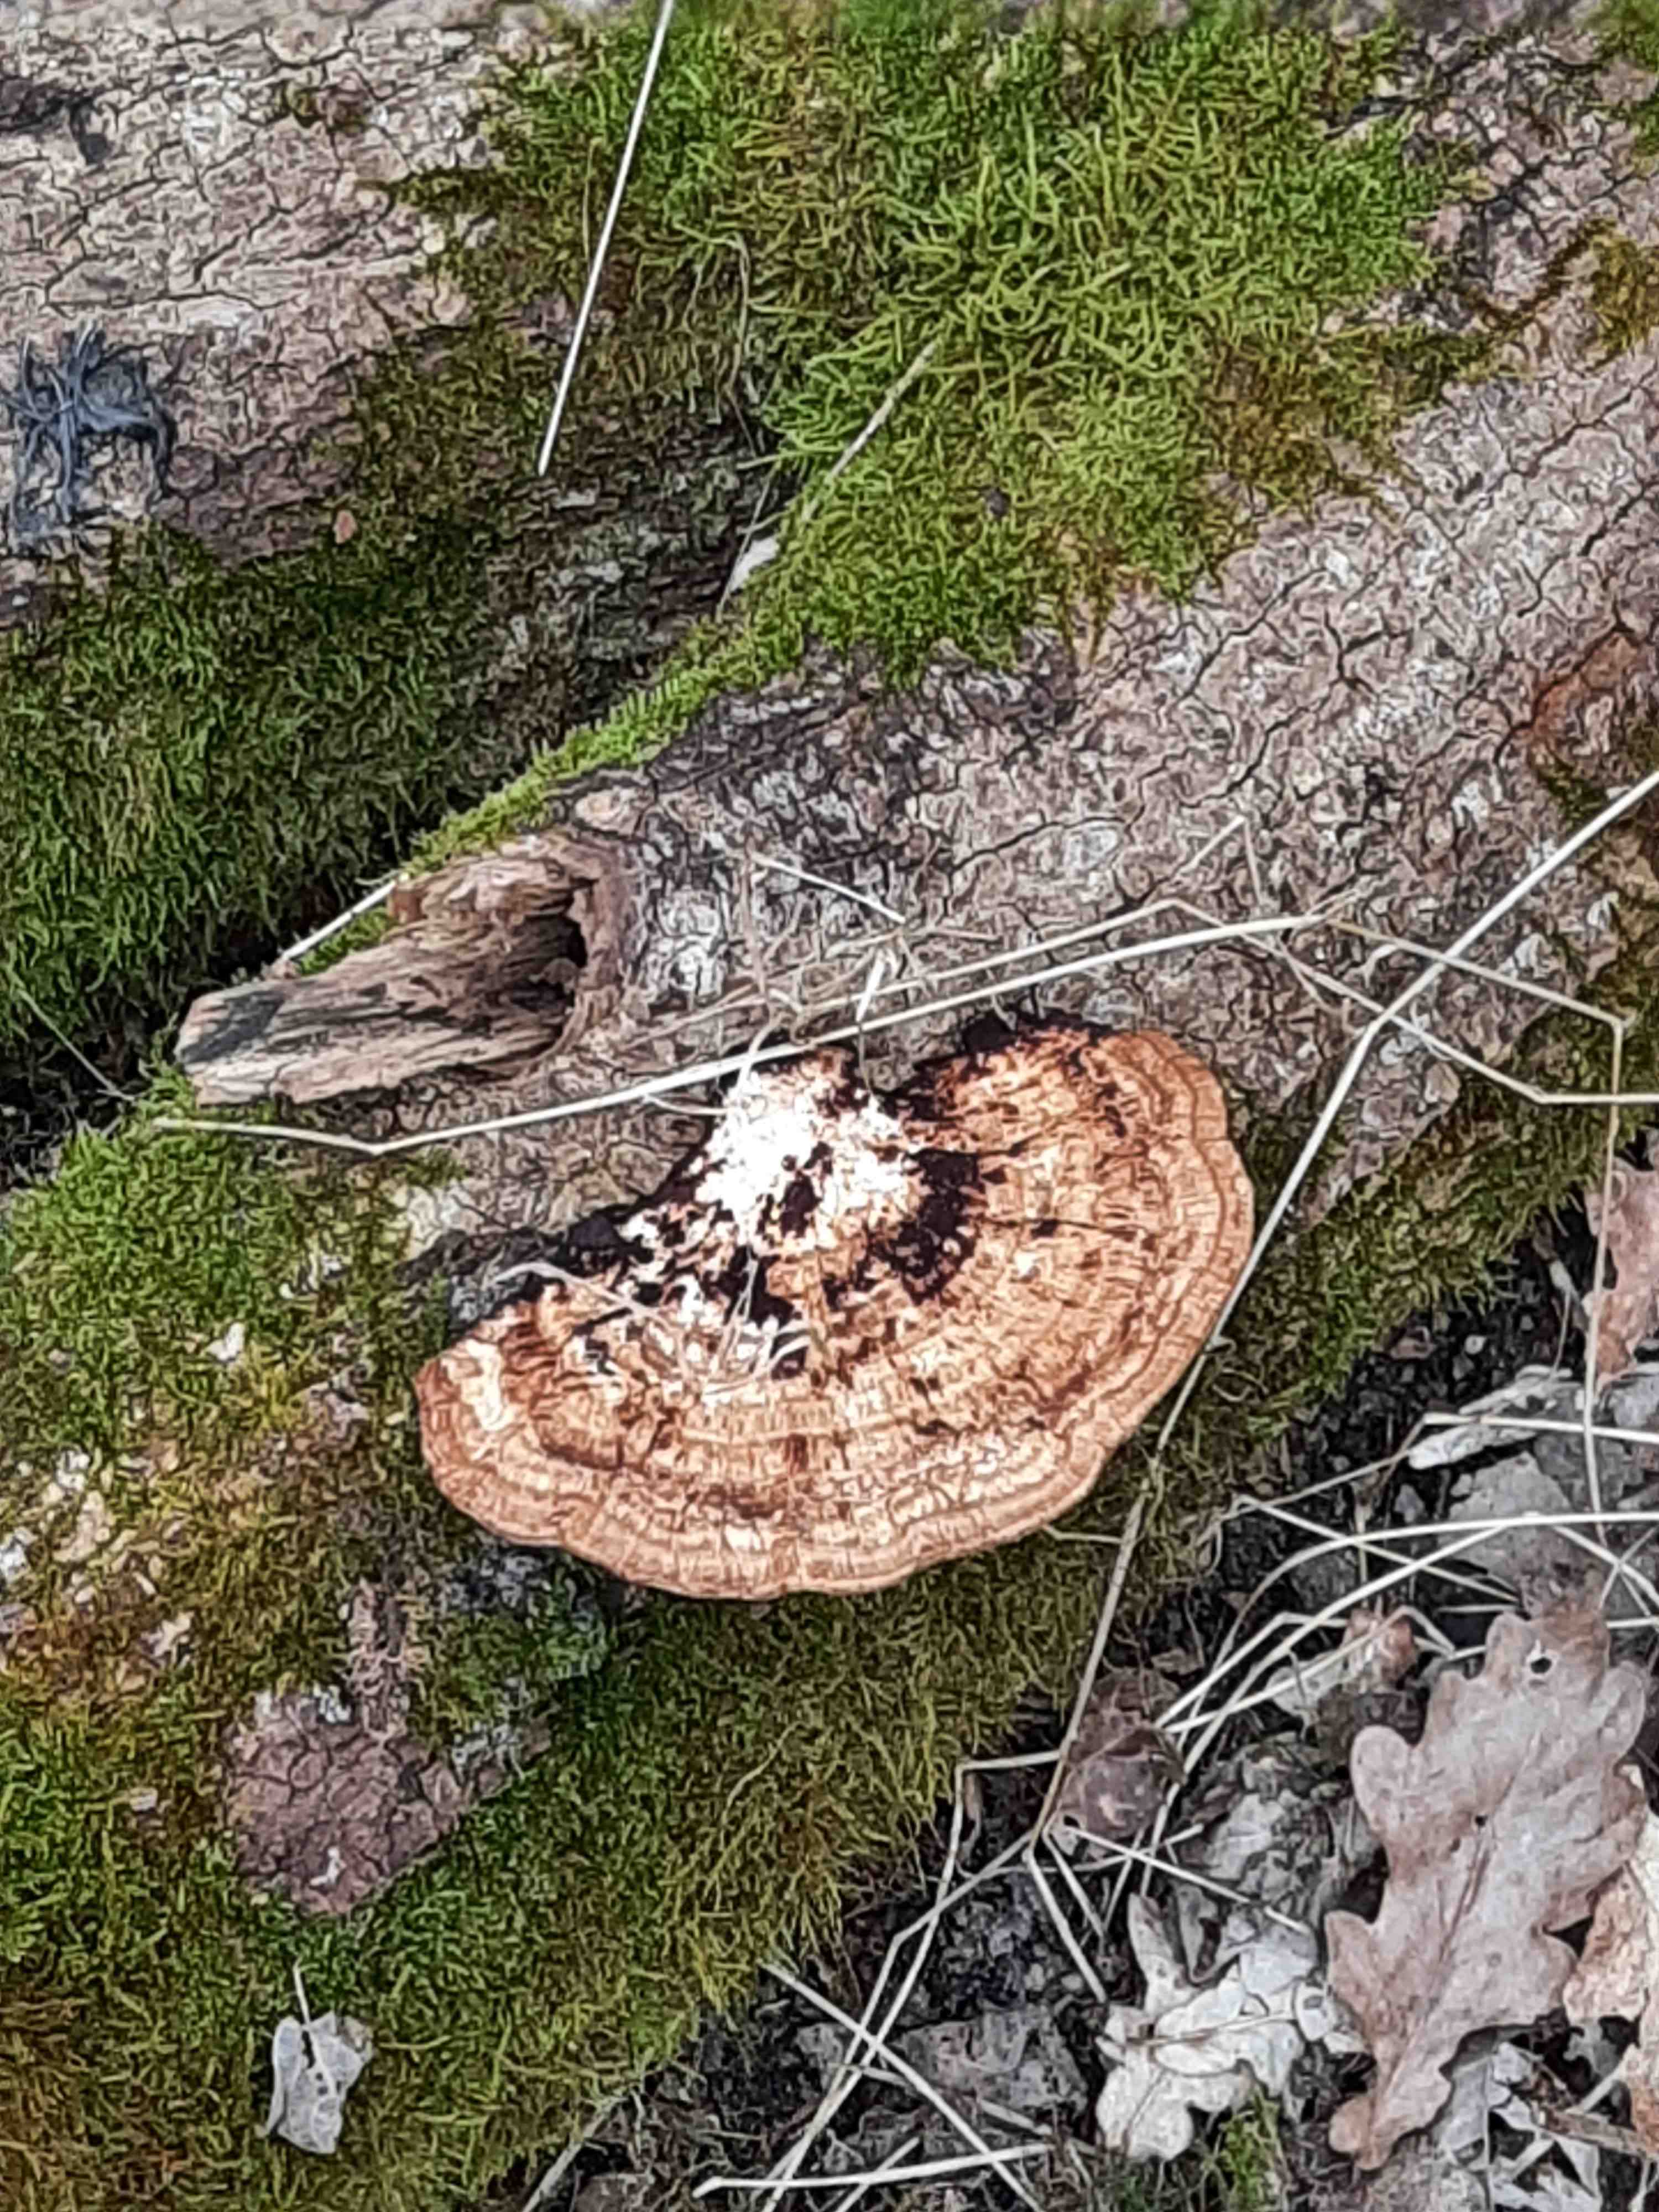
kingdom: Fungi
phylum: Basidiomycota
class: Agaricomycetes
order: Polyporales
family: Polyporaceae
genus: Daedaleopsis
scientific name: Daedaleopsis confragosa
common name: rødmende læderporesvamp
